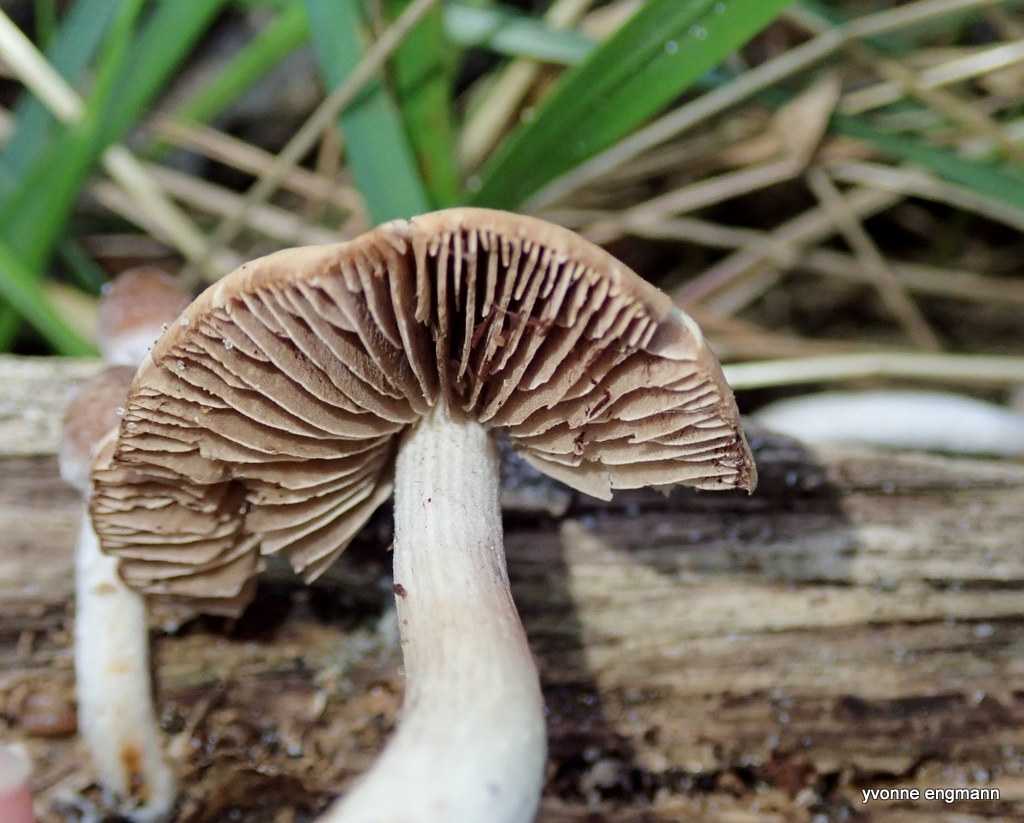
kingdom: Fungi
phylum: Basidiomycota
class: Agaricomycetes
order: Agaricales
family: Psathyrellaceae
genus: Psathyrella
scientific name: Psathyrella
